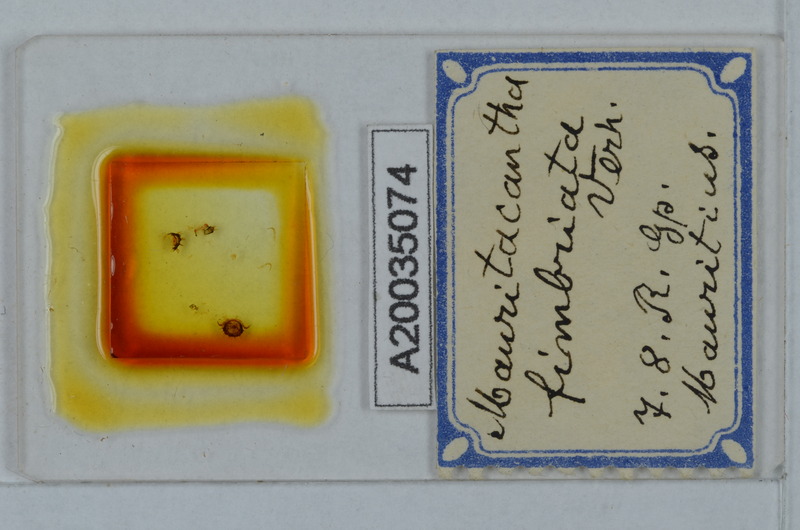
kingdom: Animalia
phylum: Arthropoda
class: Diplopoda
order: Polydesmida
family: Trichopolydesmidae
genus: Mauritacantha
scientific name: Mauritacantha fimbriata
